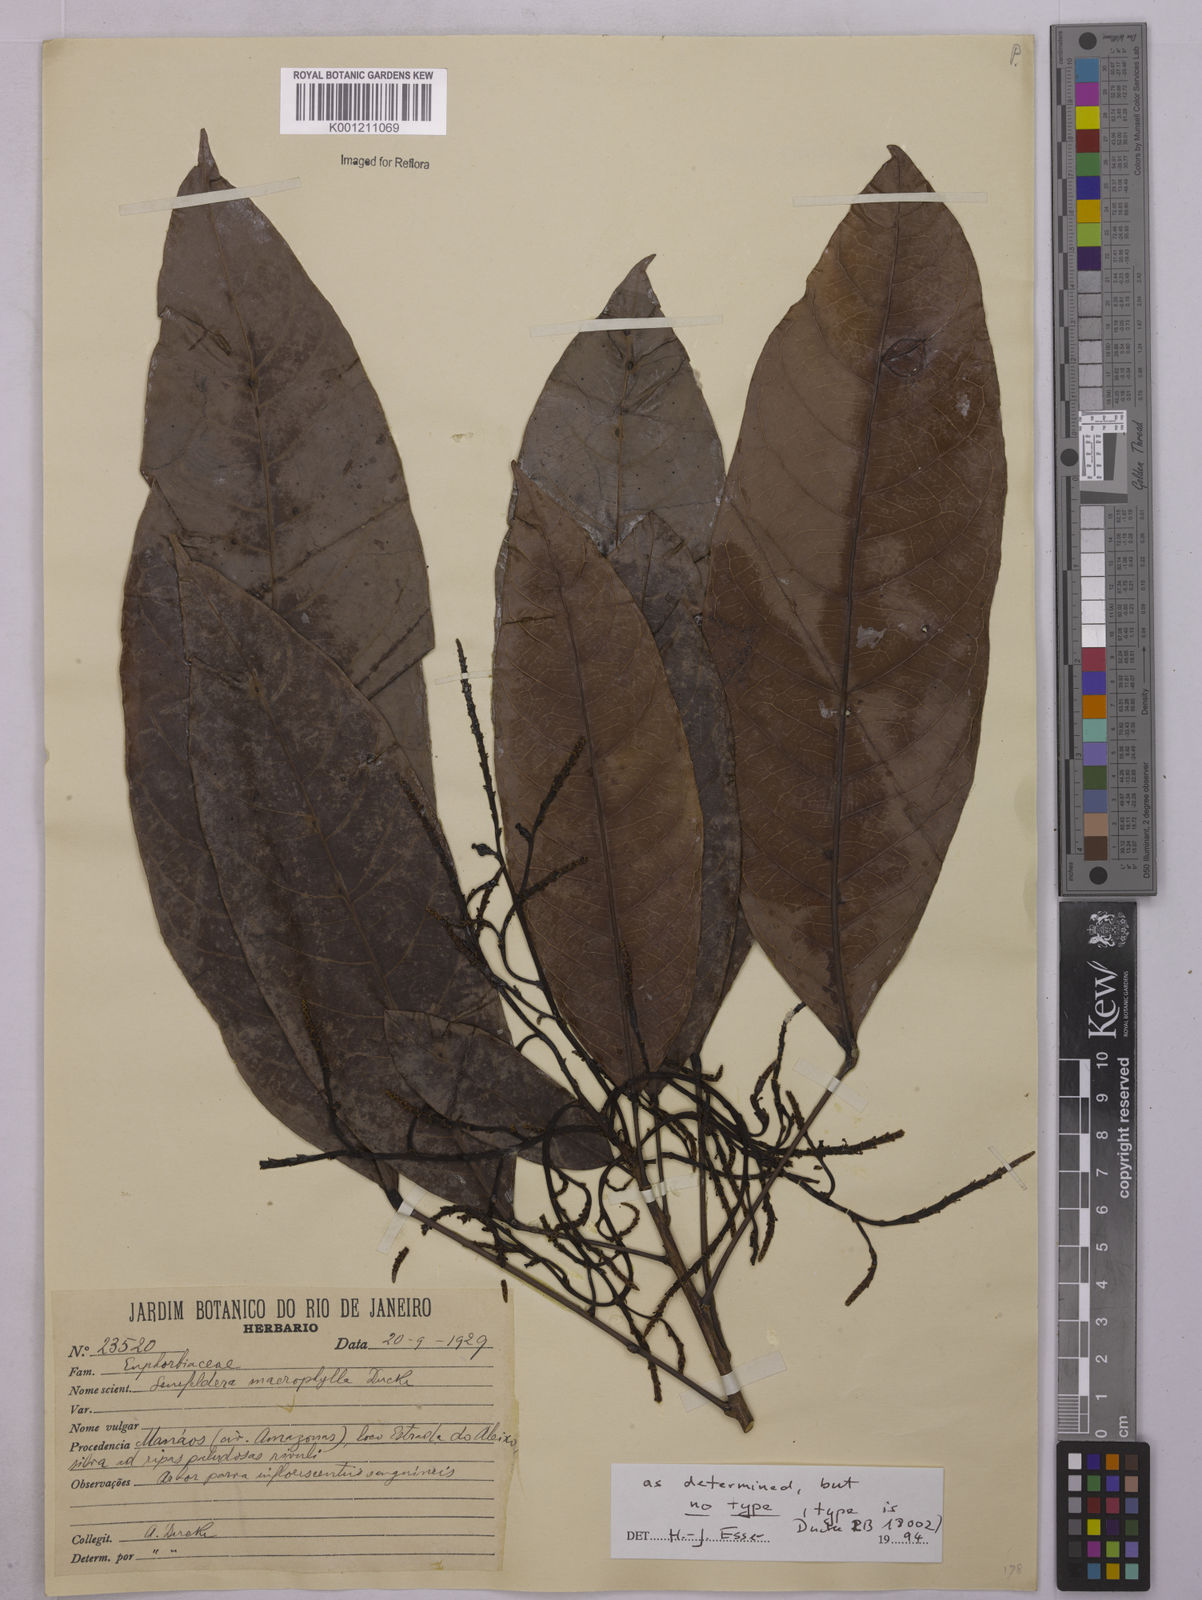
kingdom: Plantae
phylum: Tracheophyta
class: Magnoliopsida
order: Malpighiales
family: Euphorbiaceae
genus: Rhodothyrsus
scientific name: Rhodothyrsus macrophyllus
